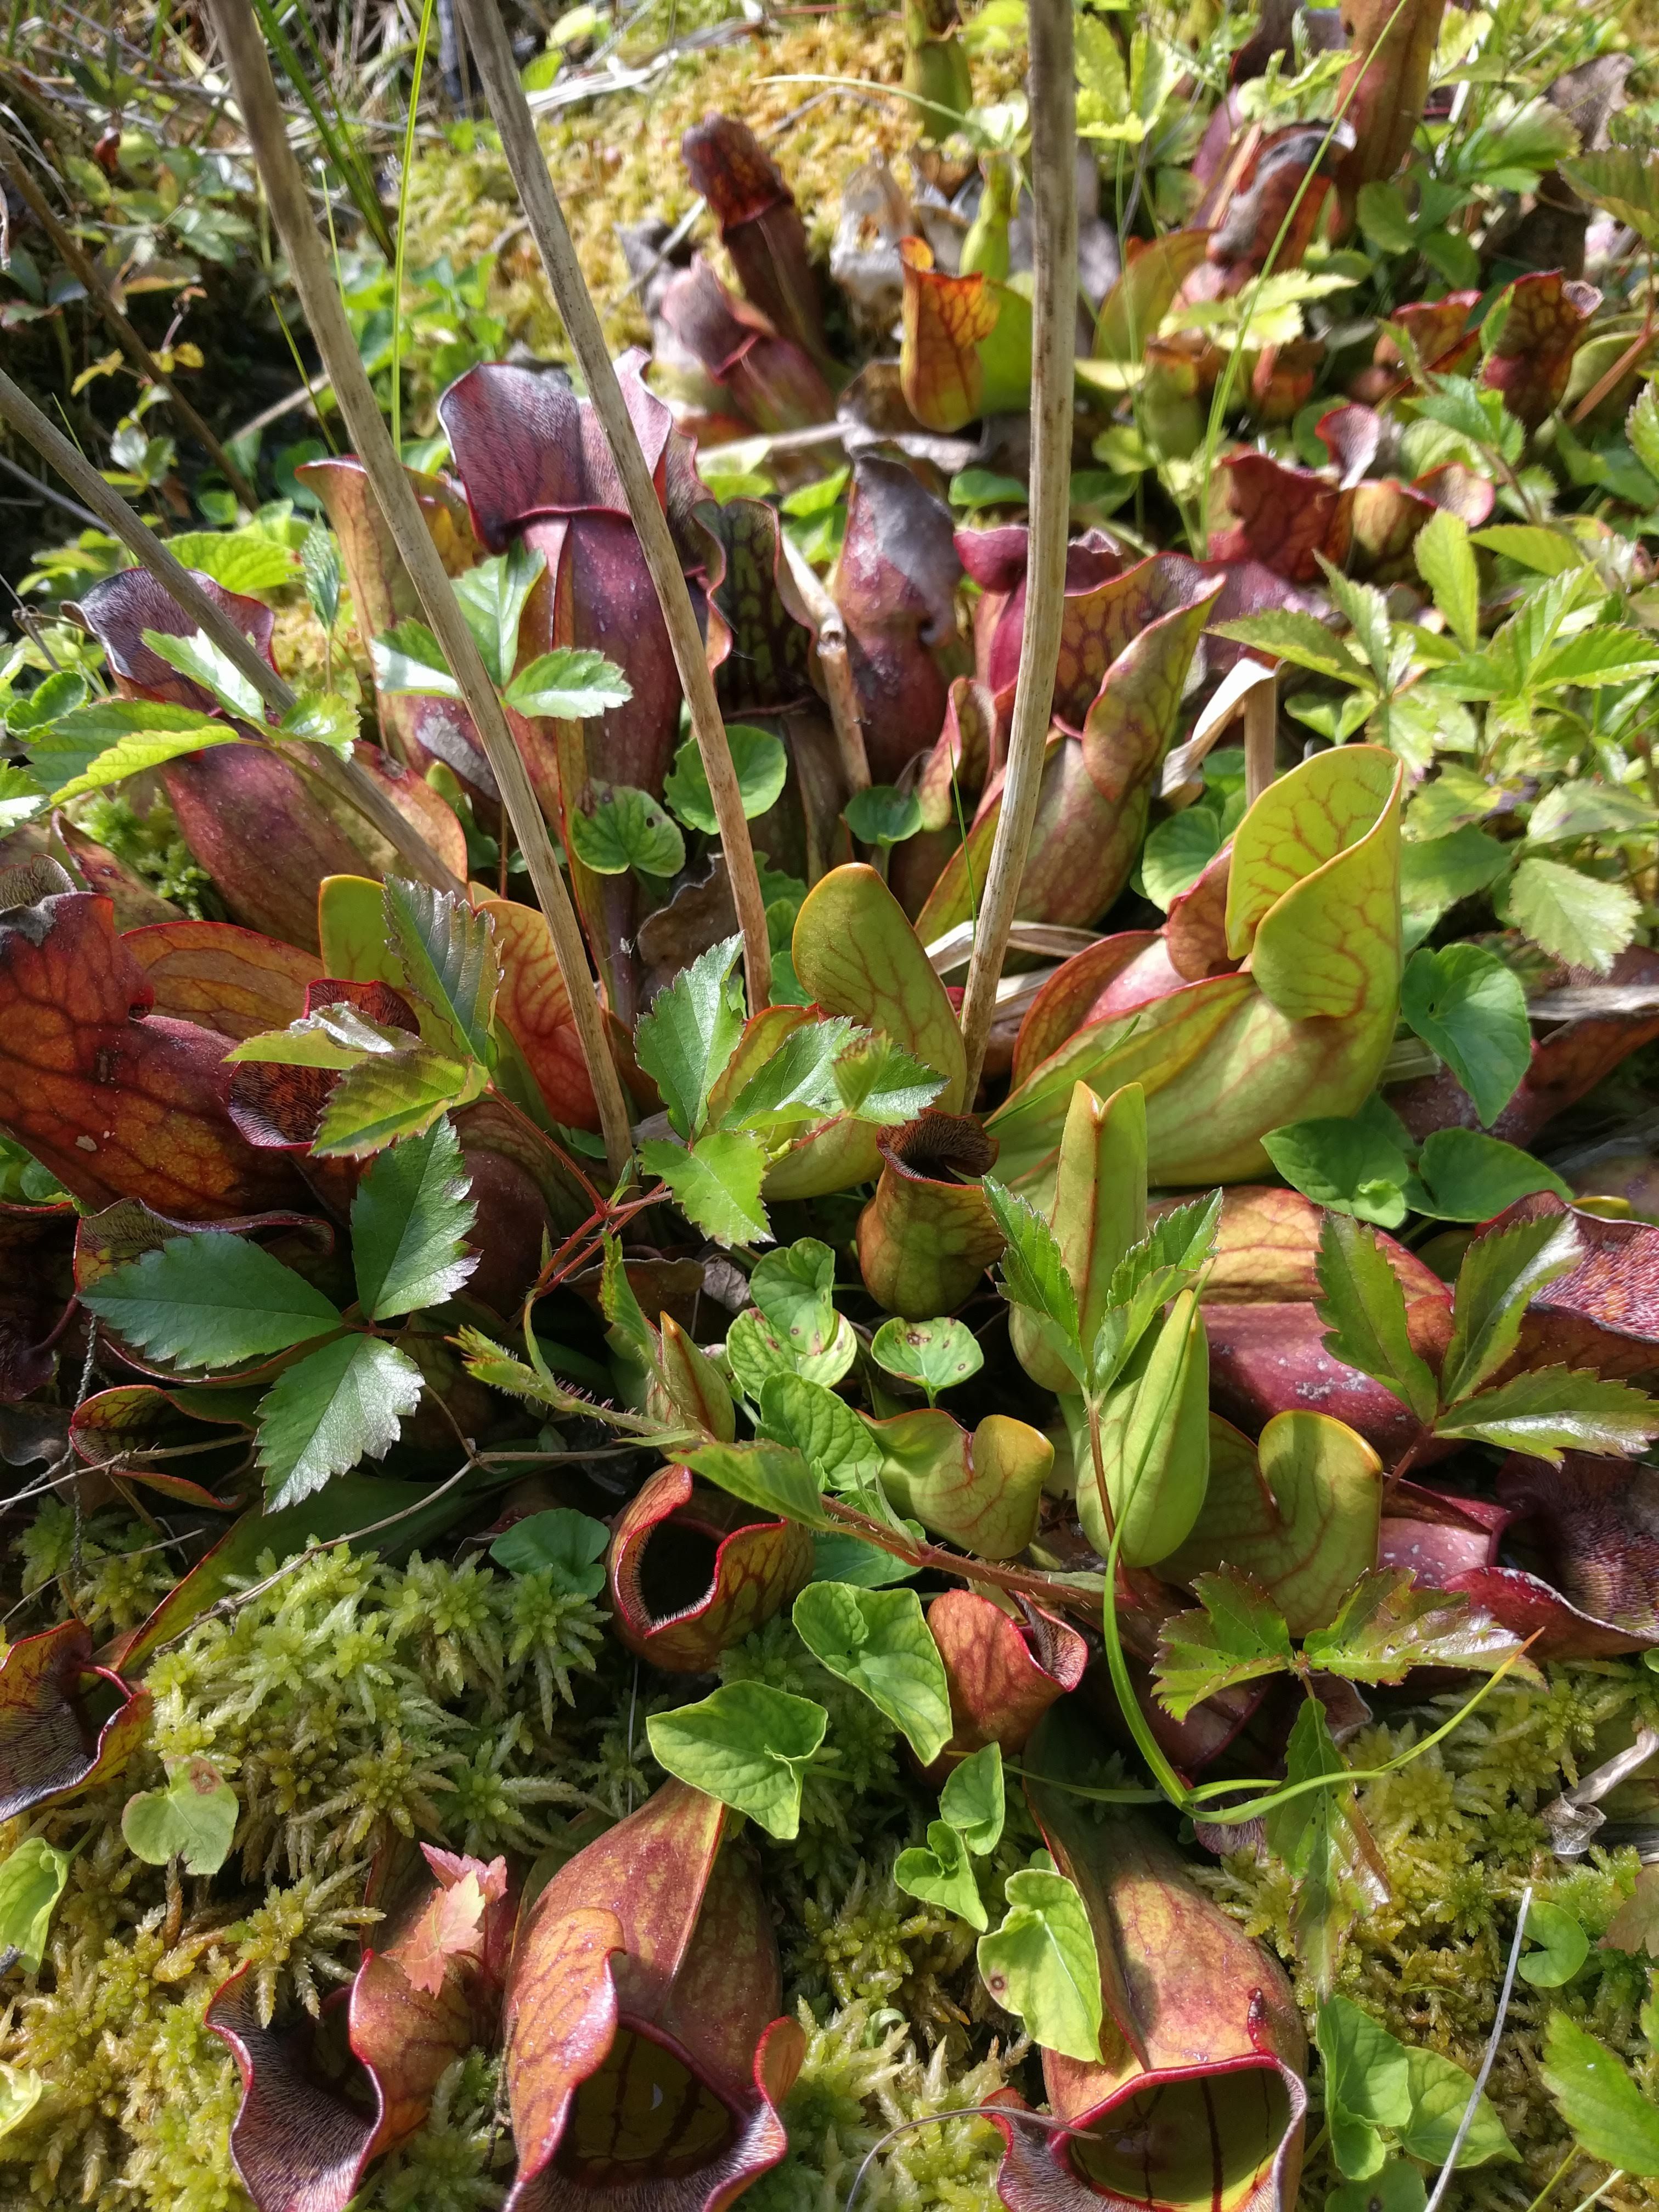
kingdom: Plantae
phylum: Tracheophyta
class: Magnoliopsida
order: Ericales
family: Sarraceniaceae
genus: Sarracenia
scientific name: Sarracenia purpurea
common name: Pitcherplant
